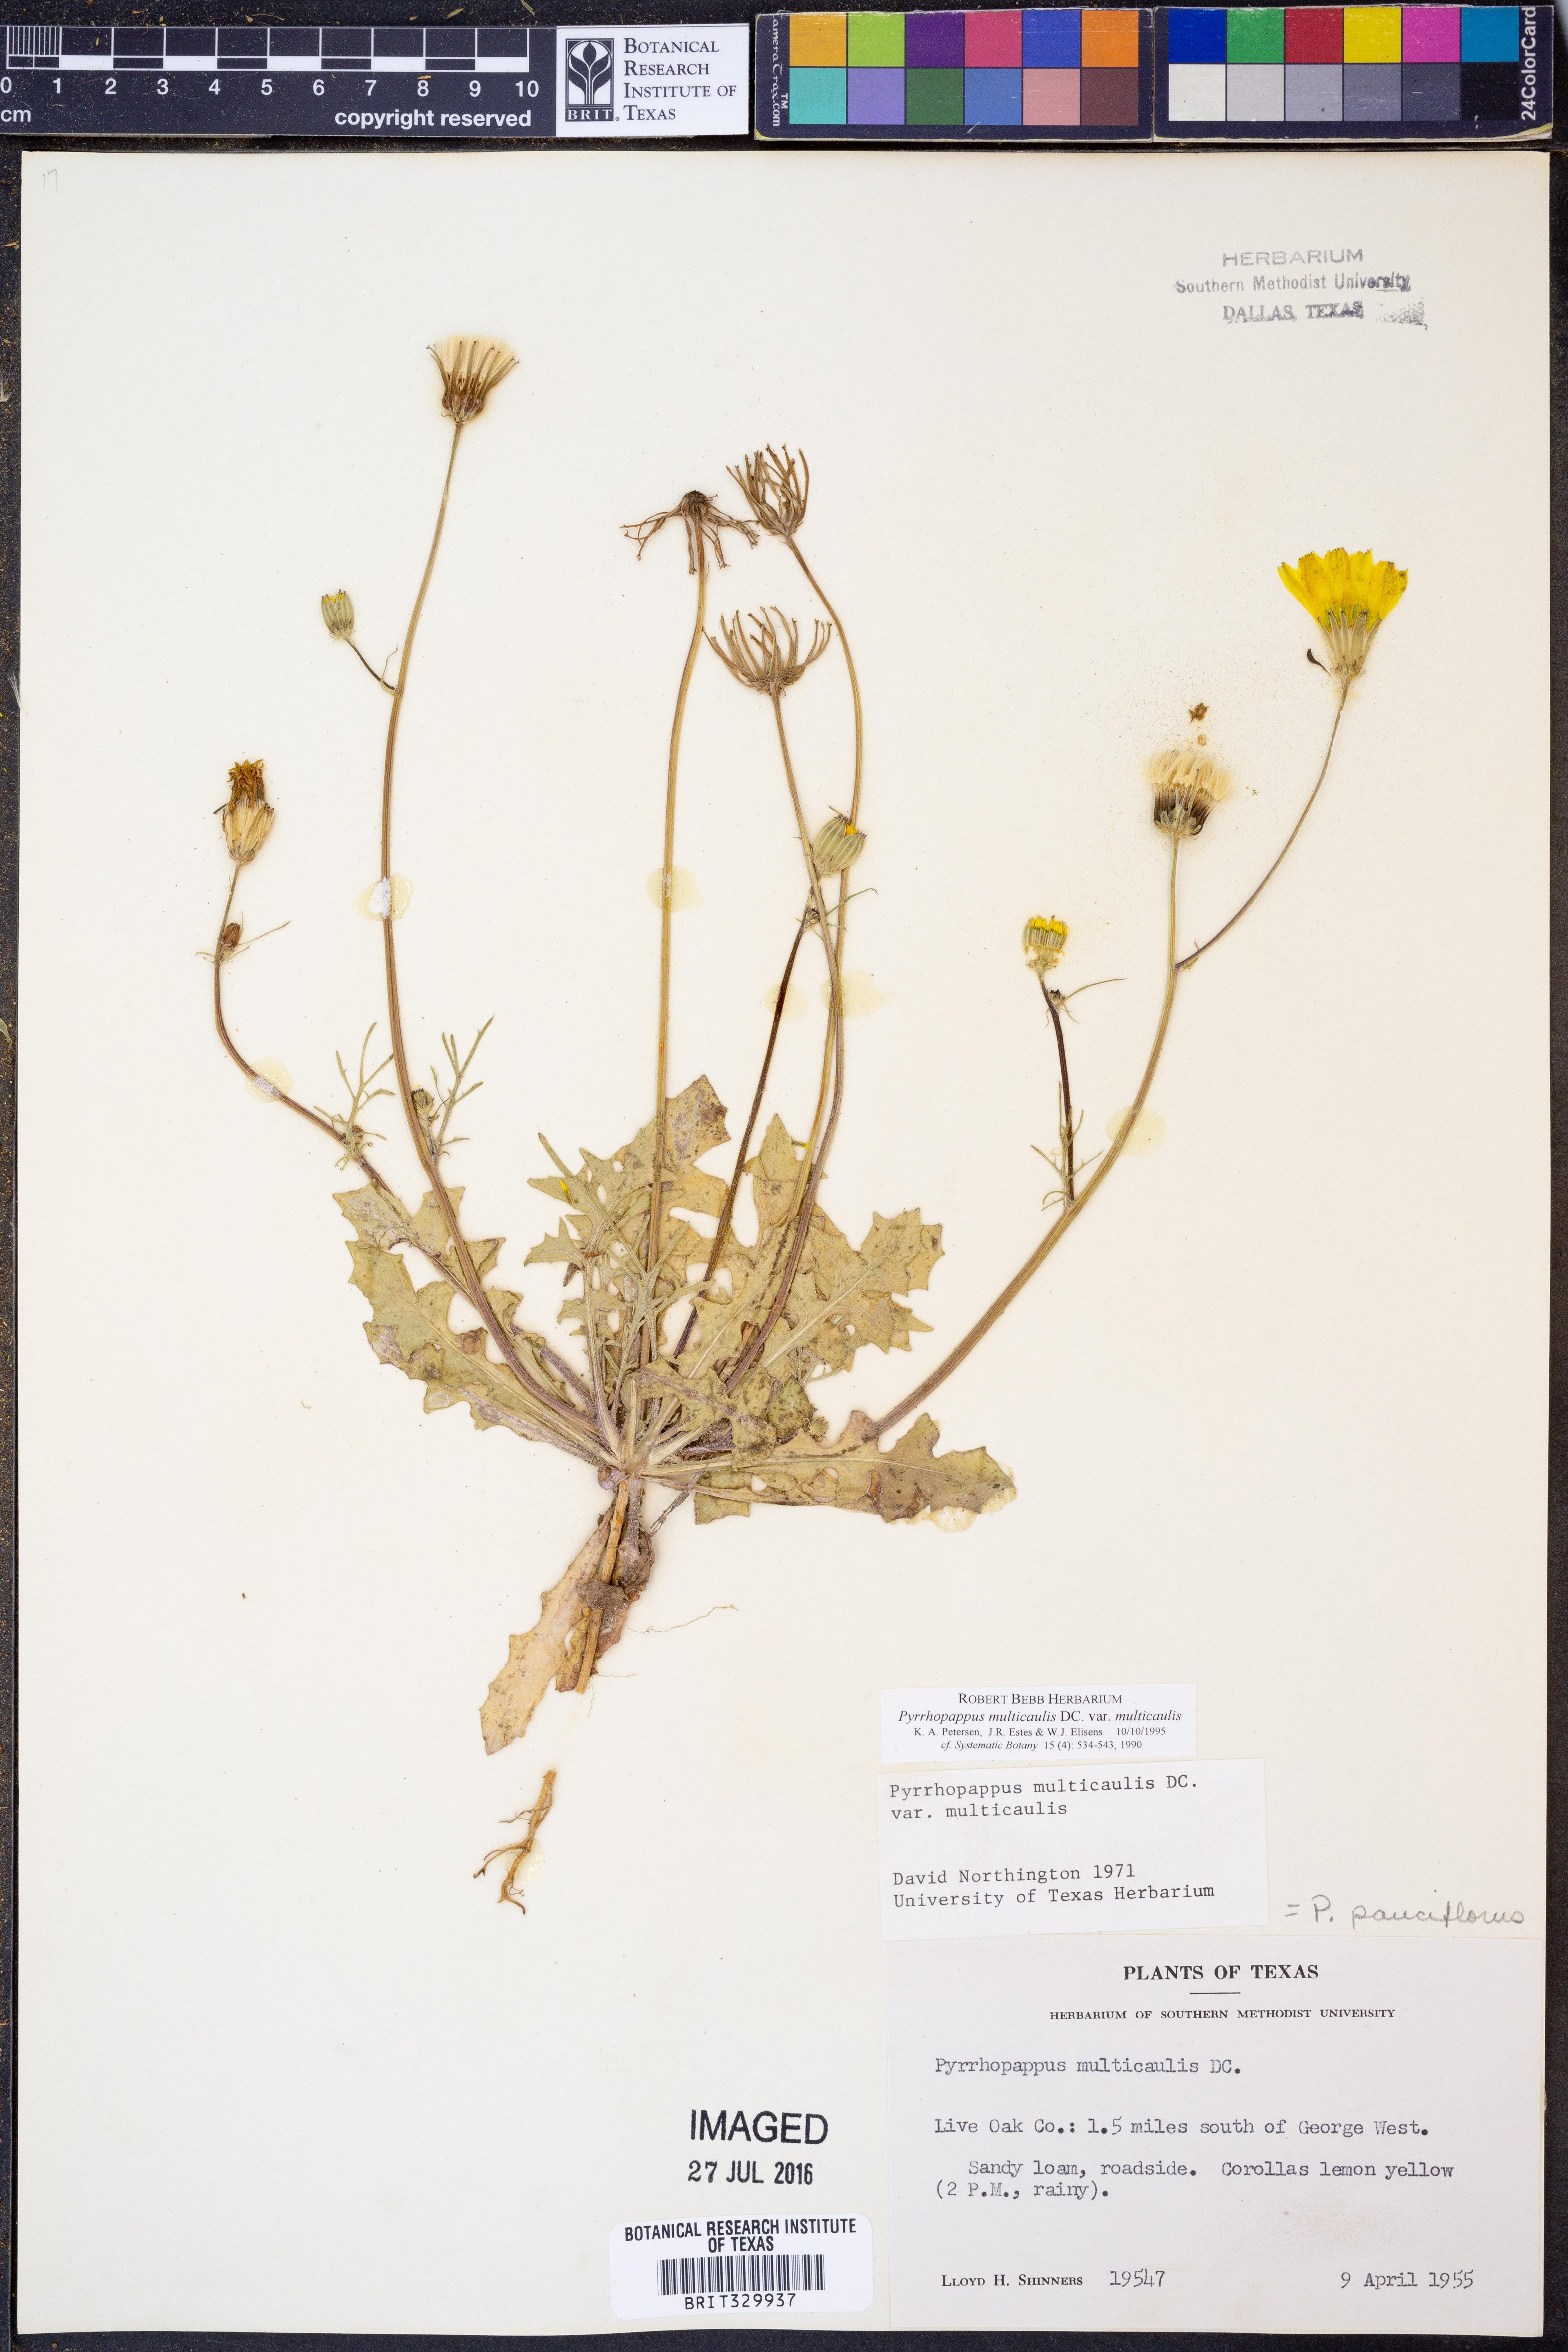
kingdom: Plantae
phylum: Tracheophyta
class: Magnoliopsida
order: Asterales
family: Asteraceae
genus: Pyrrhopappus
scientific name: Pyrrhopappus pauciflorus
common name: Texas false dandelion
